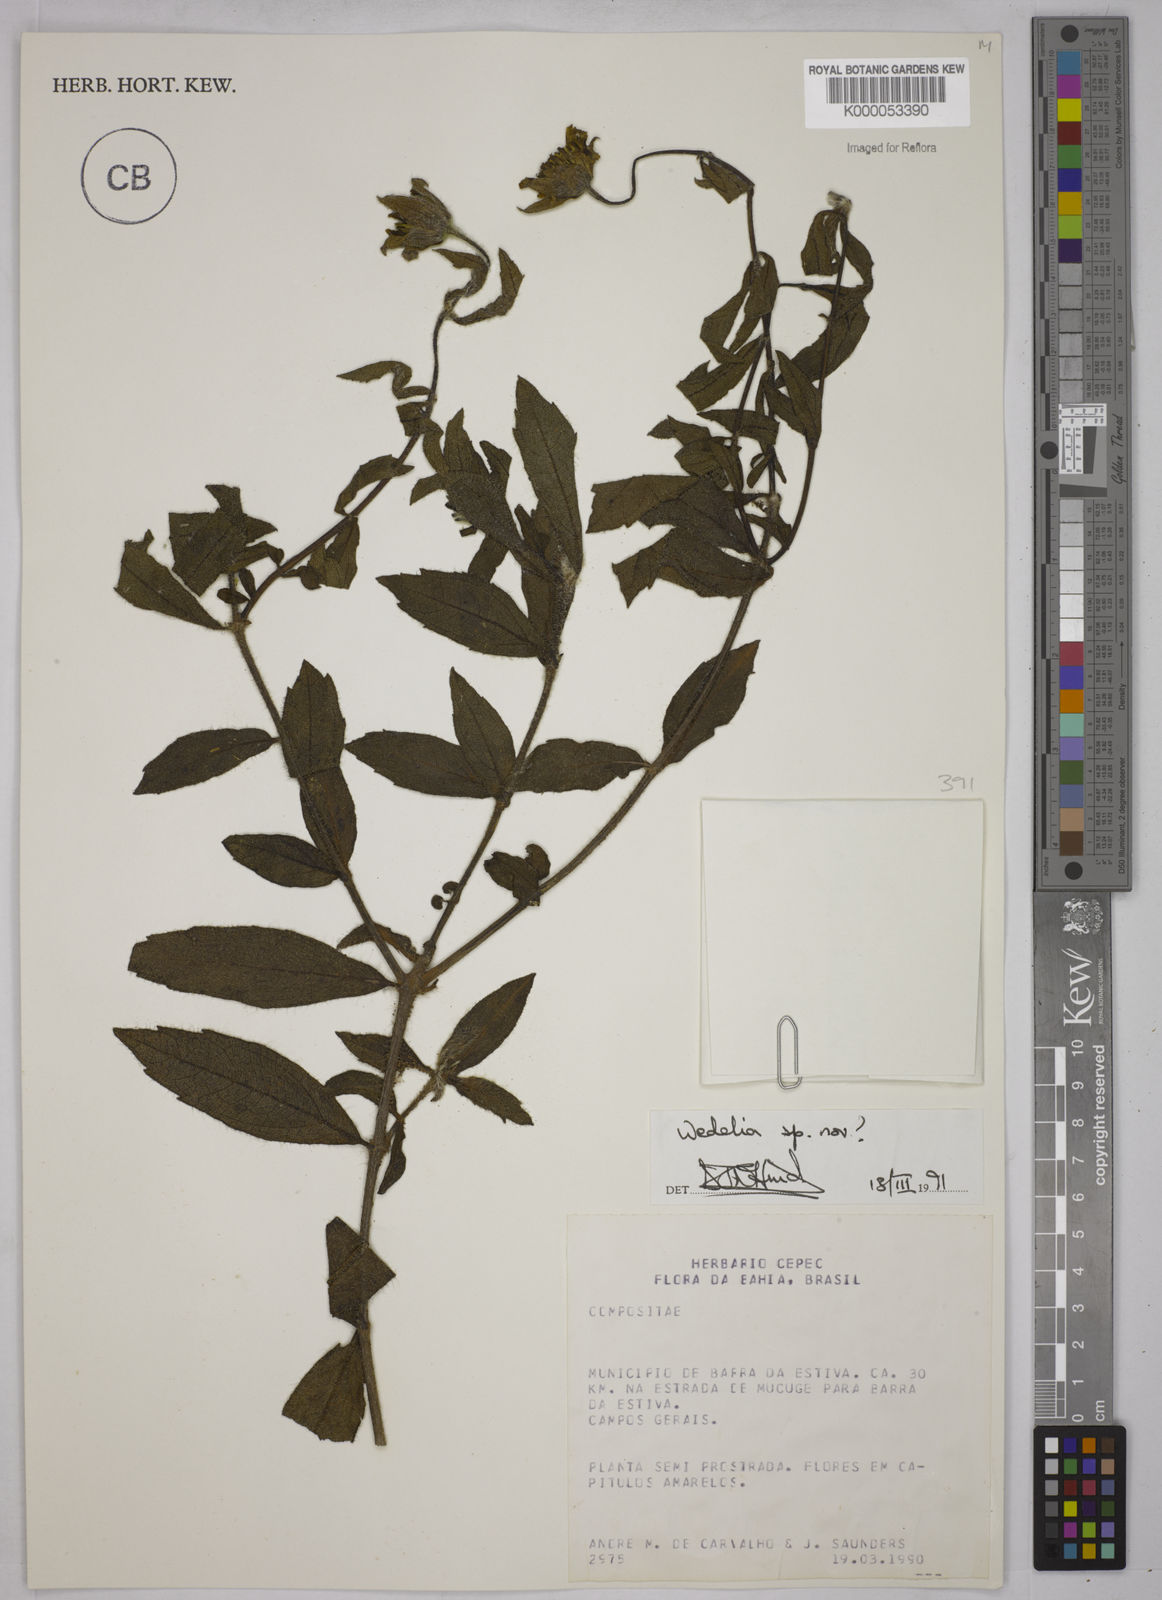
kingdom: Plantae
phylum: Tracheophyta
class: Magnoliopsida
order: Asterales
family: Asteraceae
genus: Wedelia
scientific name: Wedelia
